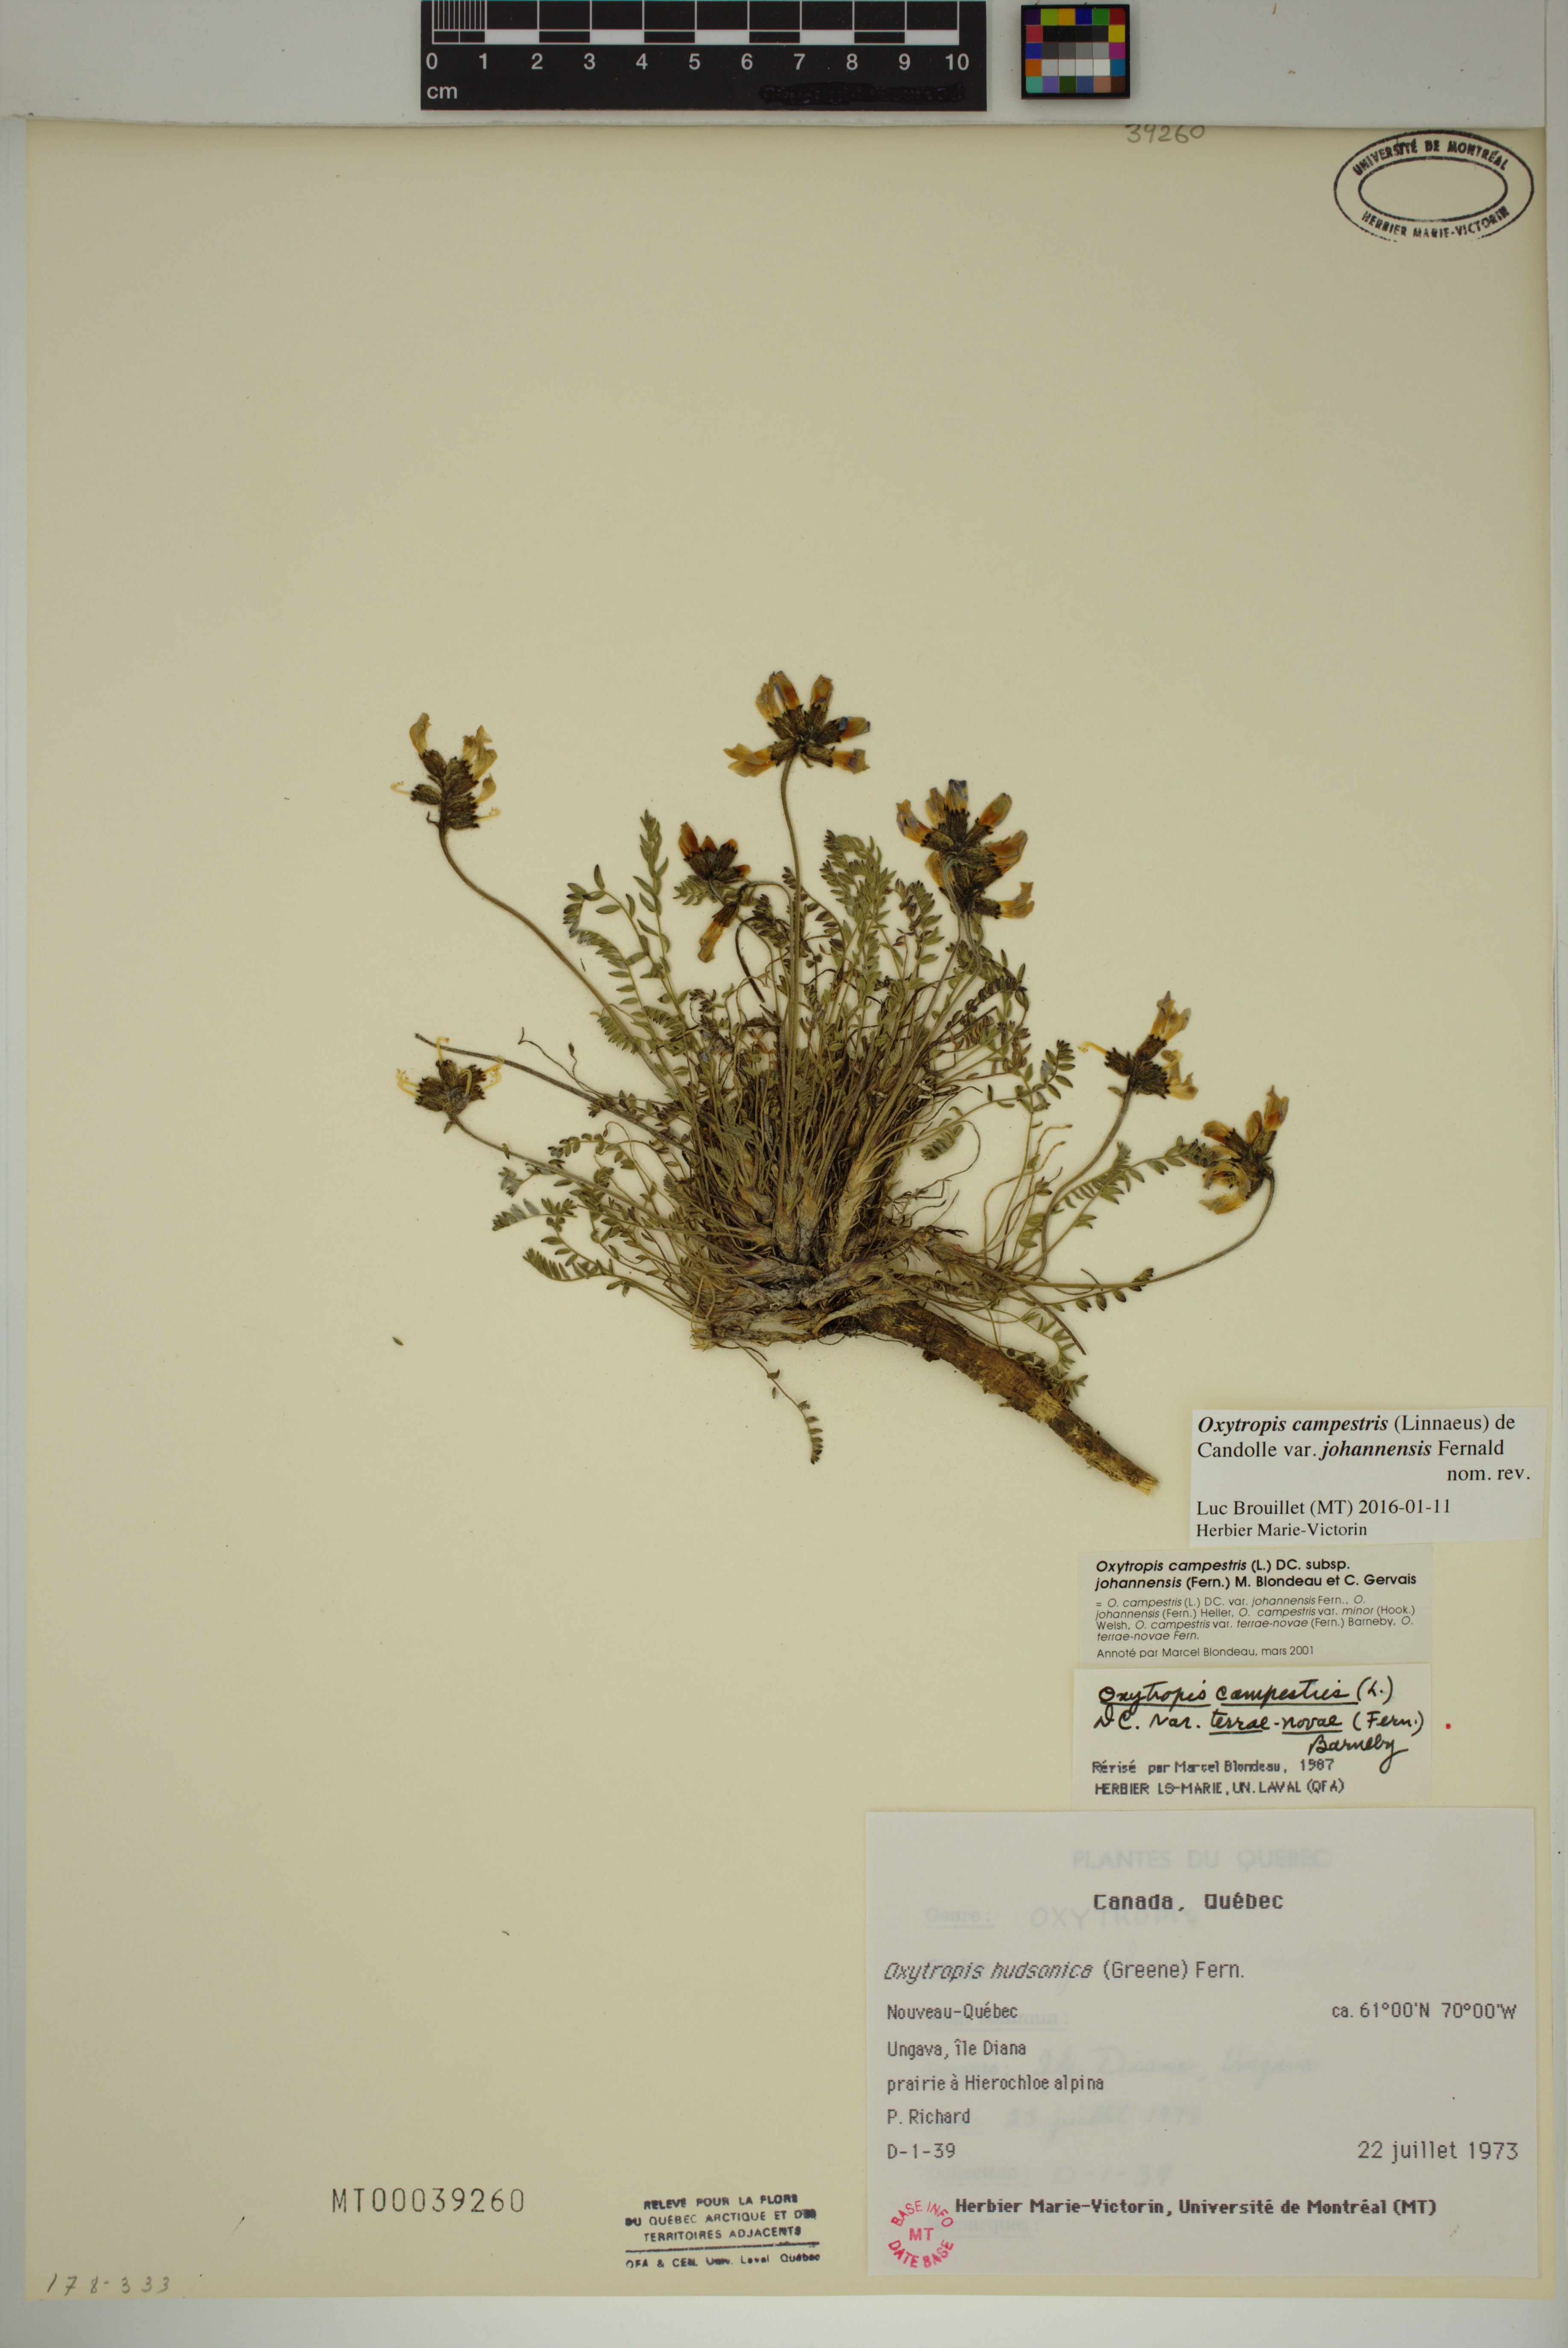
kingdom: Plantae
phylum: Tracheophyta
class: Magnoliopsida
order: Fabales
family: Fabaceae
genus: Oxytropis
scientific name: Oxytropis campestris
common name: Field locoweed
